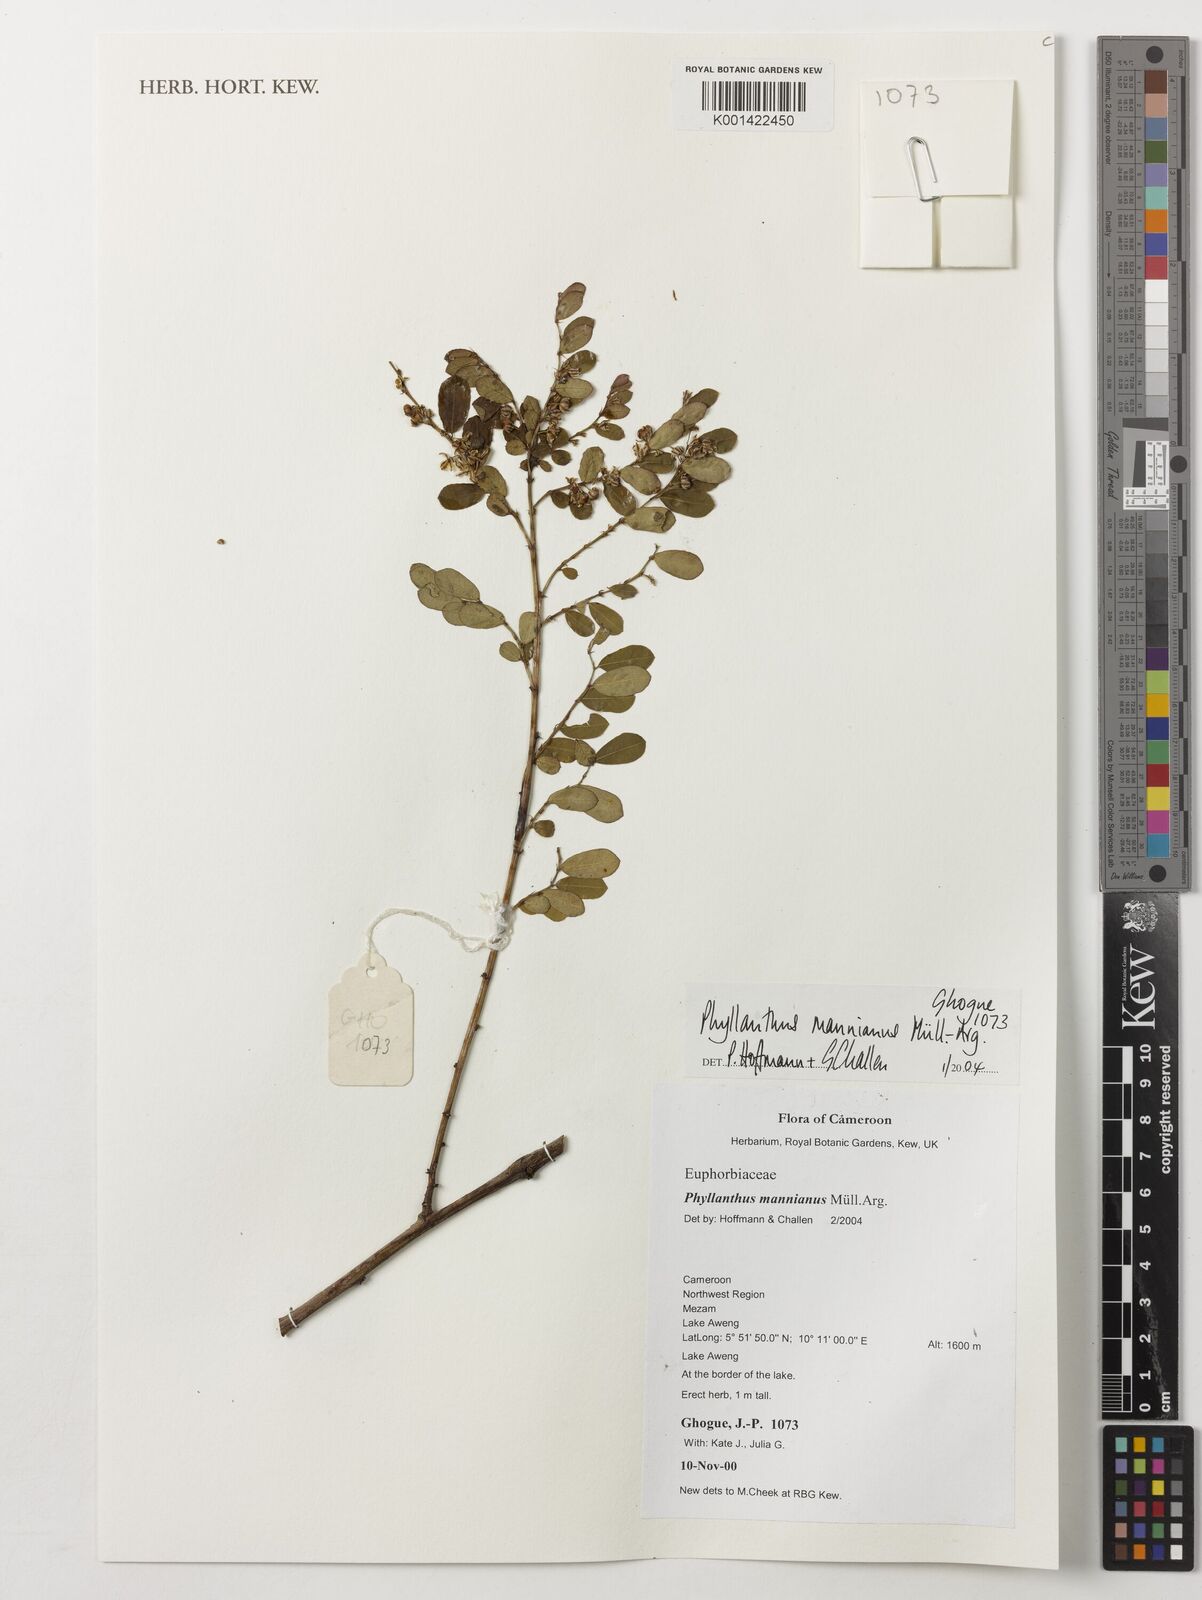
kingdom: Plantae
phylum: Tracheophyta
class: Magnoliopsida
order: Malpighiales
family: Phyllanthaceae
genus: Phyllanthus
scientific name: Phyllanthus mannianus
